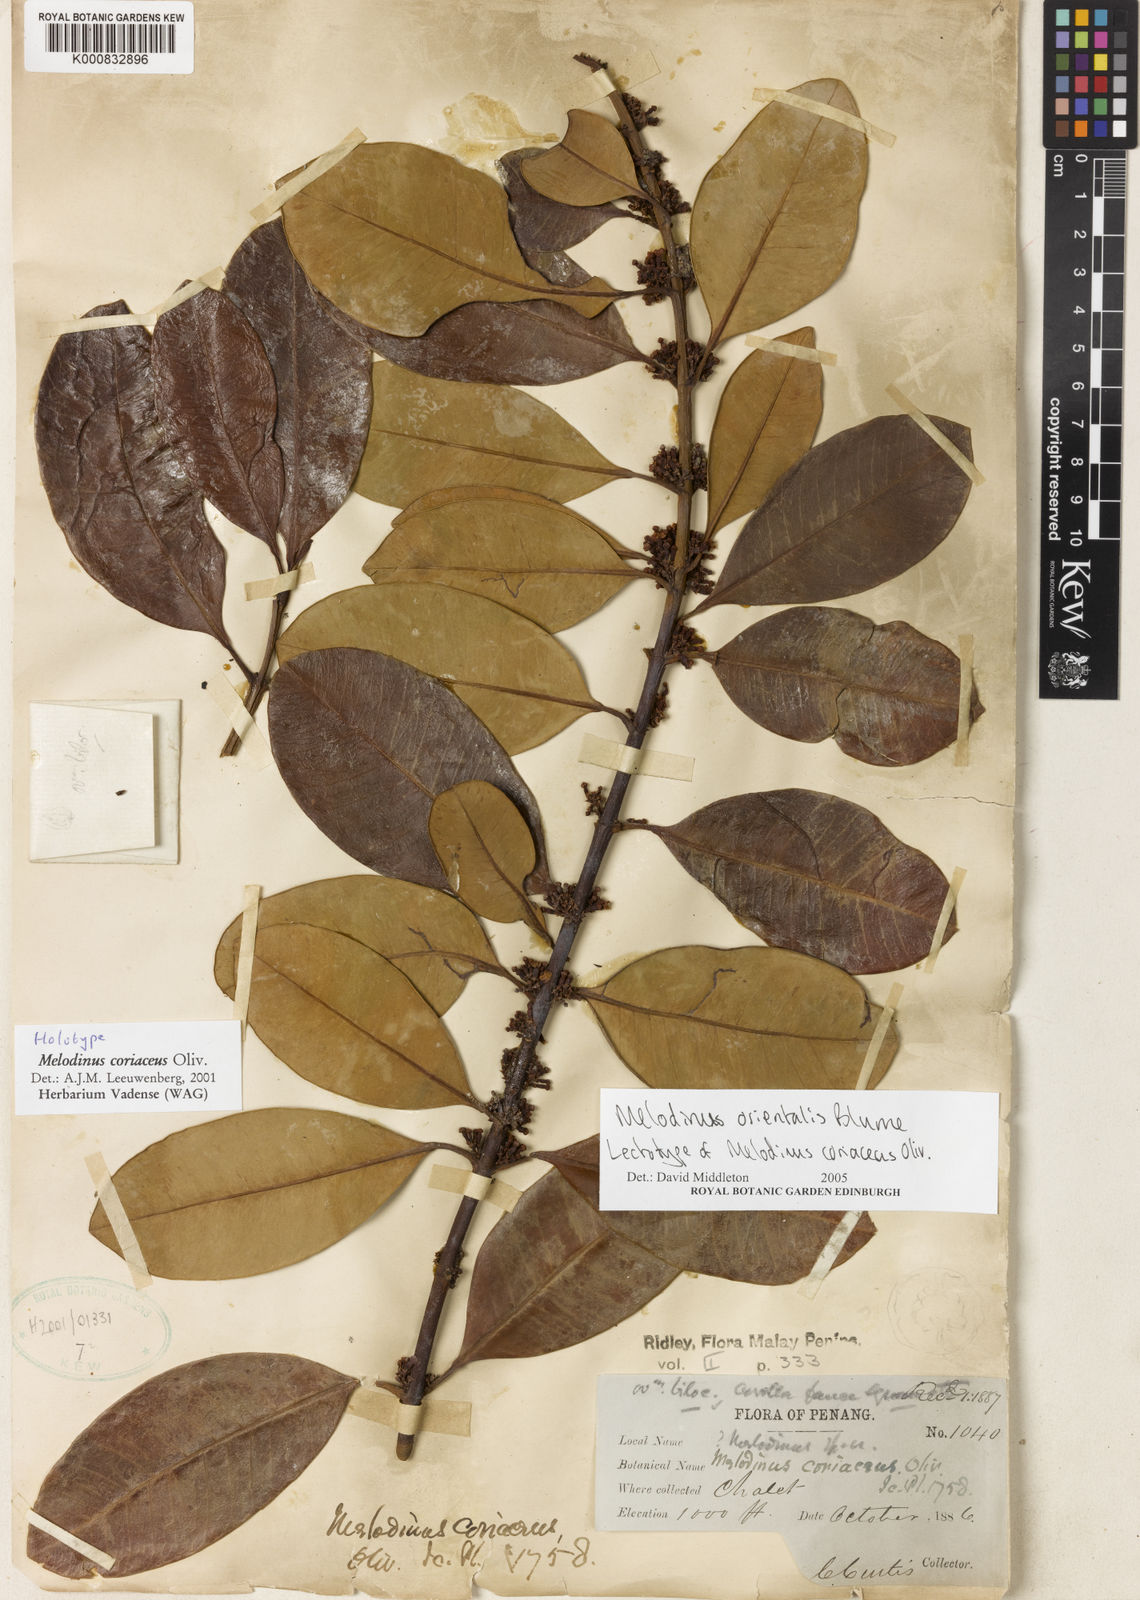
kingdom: Plantae
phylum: Tracheophyta
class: Magnoliopsida
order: Gentianales
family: Apocynaceae
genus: Melodinus
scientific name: Melodinus orientalis
